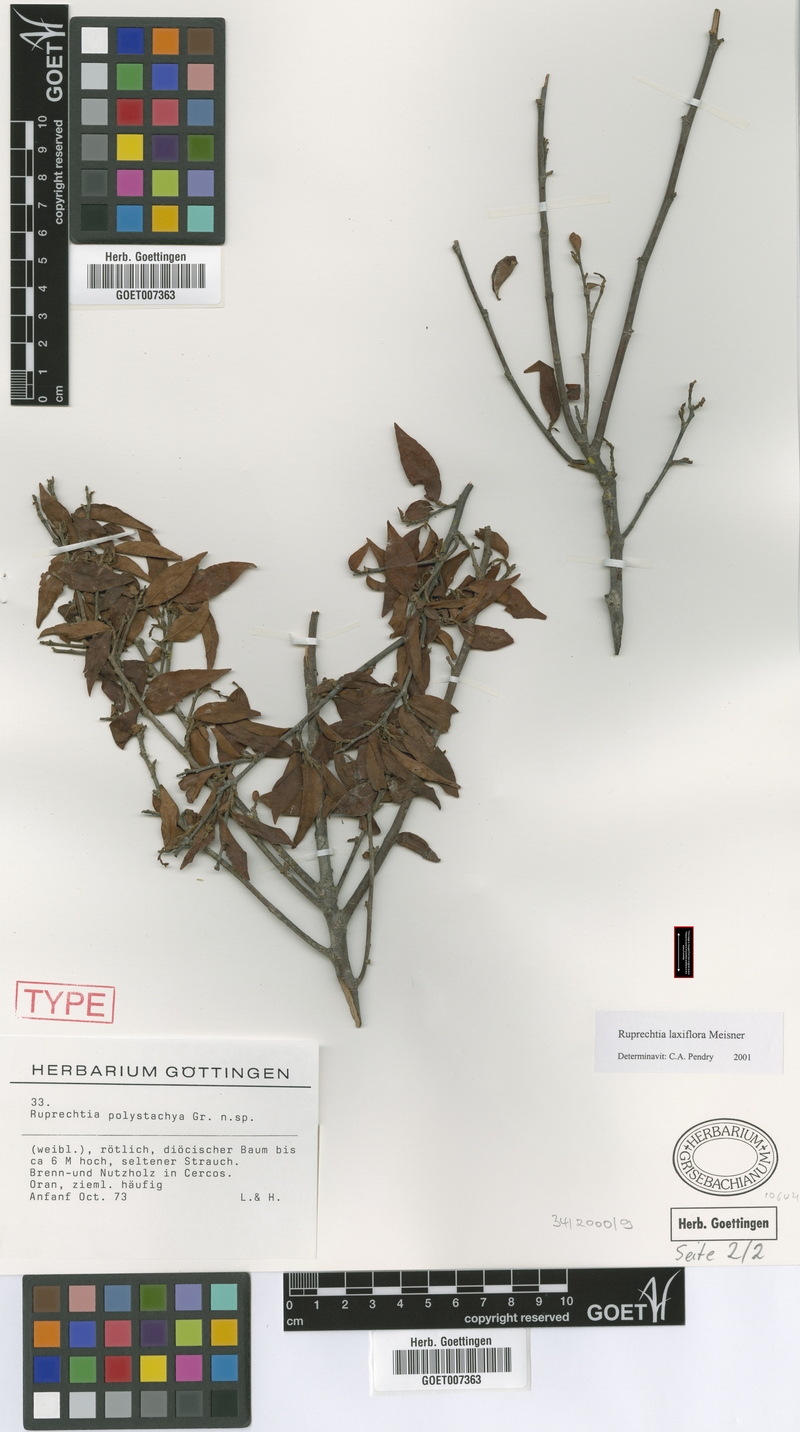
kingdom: Plantae
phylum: Tracheophyta
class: Magnoliopsida
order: Caryophyllales
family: Polygonaceae
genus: Ruprechtia
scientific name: Ruprechtia laxiflora
